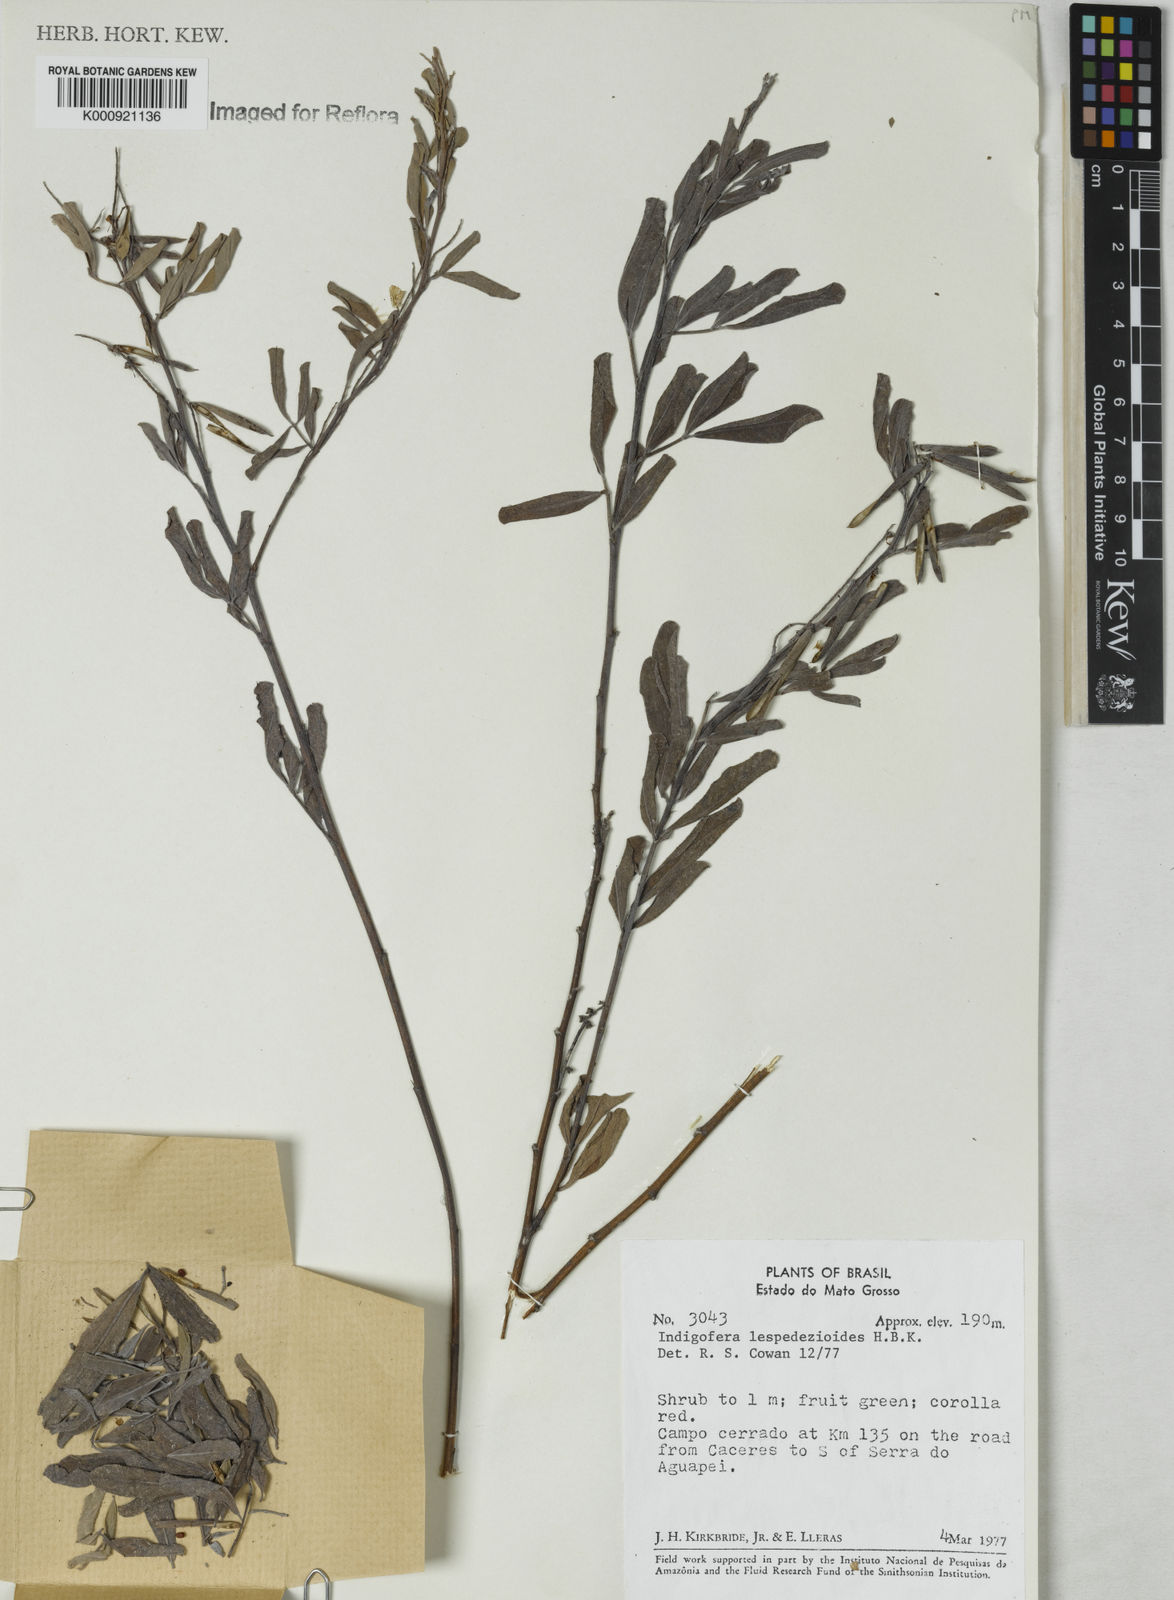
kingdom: Plantae
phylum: Tracheophyta
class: Magnoliopsida
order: Fabales
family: Fabaceae
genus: Indigofera
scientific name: Indigofera lespedezioides
